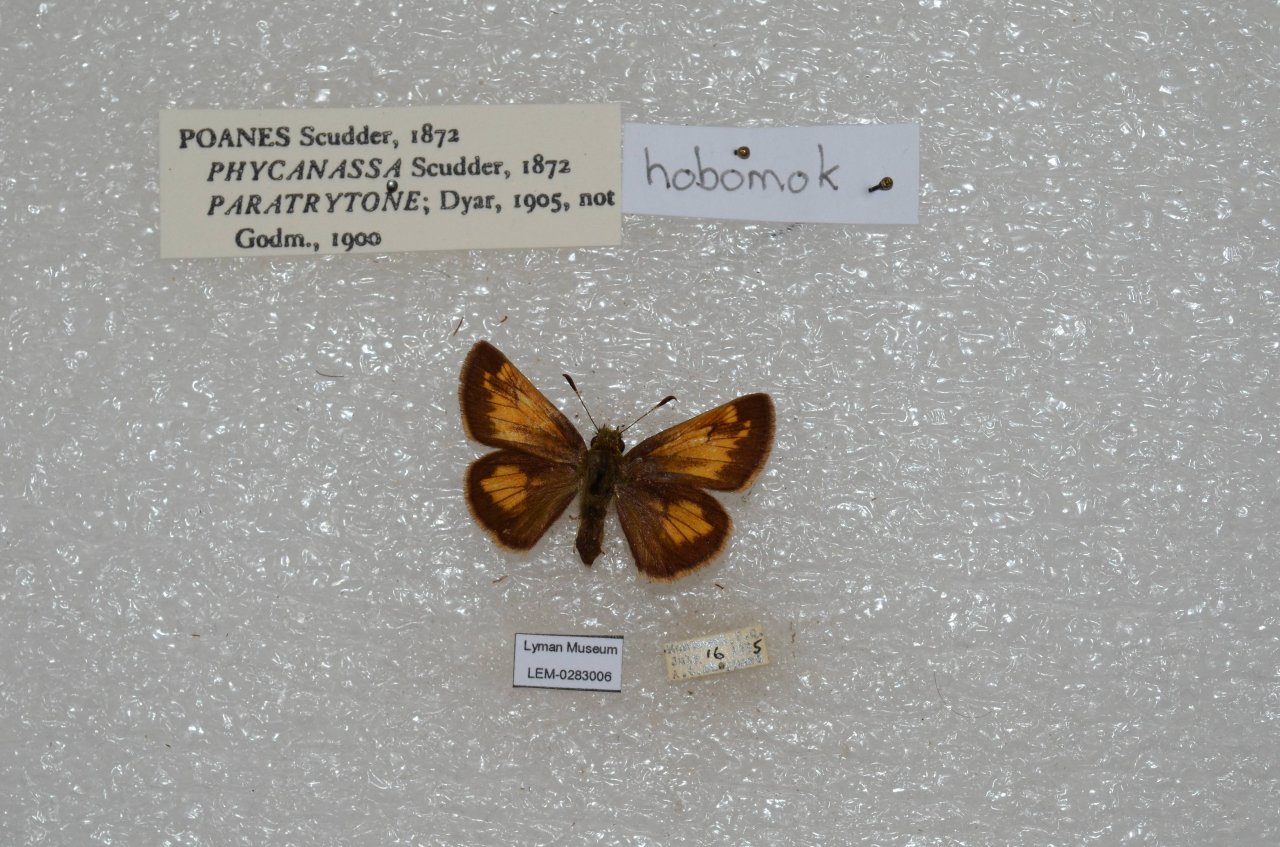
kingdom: Animalia
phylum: Arthropoda
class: Insecta
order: Lepidoptera
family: Hesperiidae
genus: Lon
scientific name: Lon hobomok
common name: Hobomok Skipper
